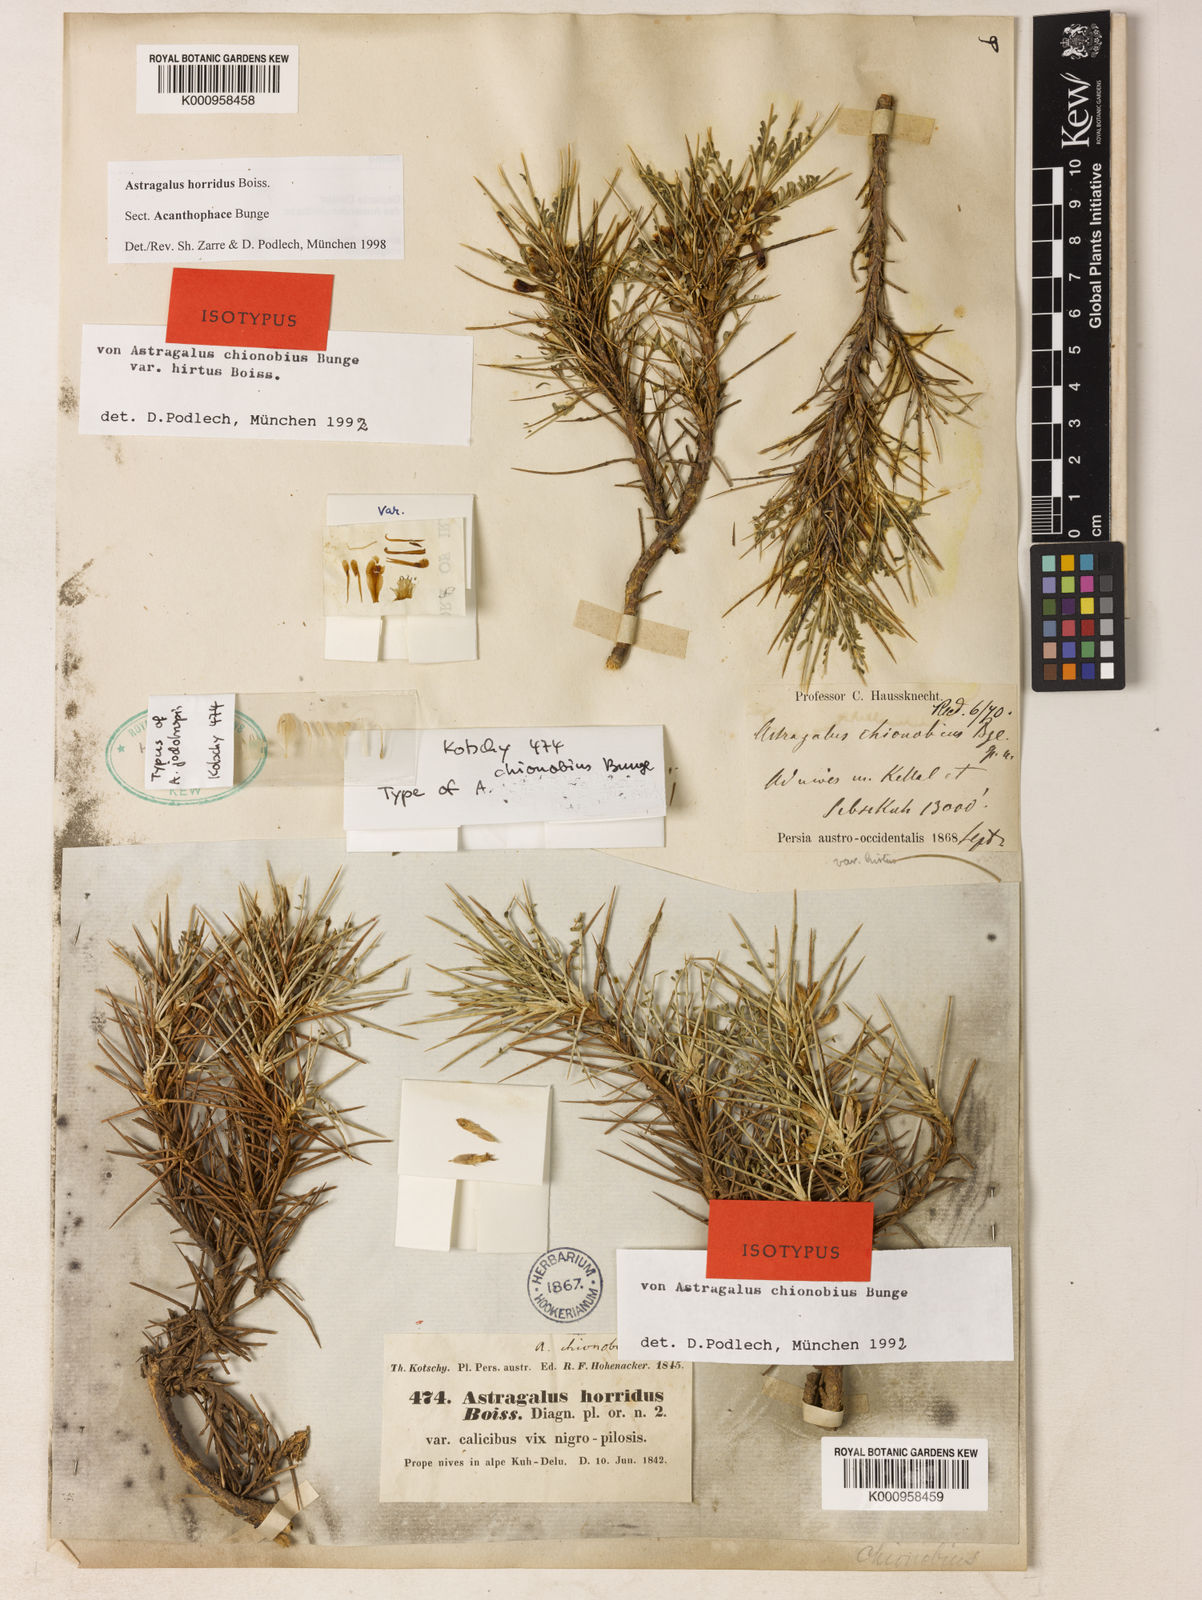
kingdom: Plantae
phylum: Tracheophyta
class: Magnoliopsida
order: Fabales
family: Fabaceae
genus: Astragalus
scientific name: Astragalus horridus
